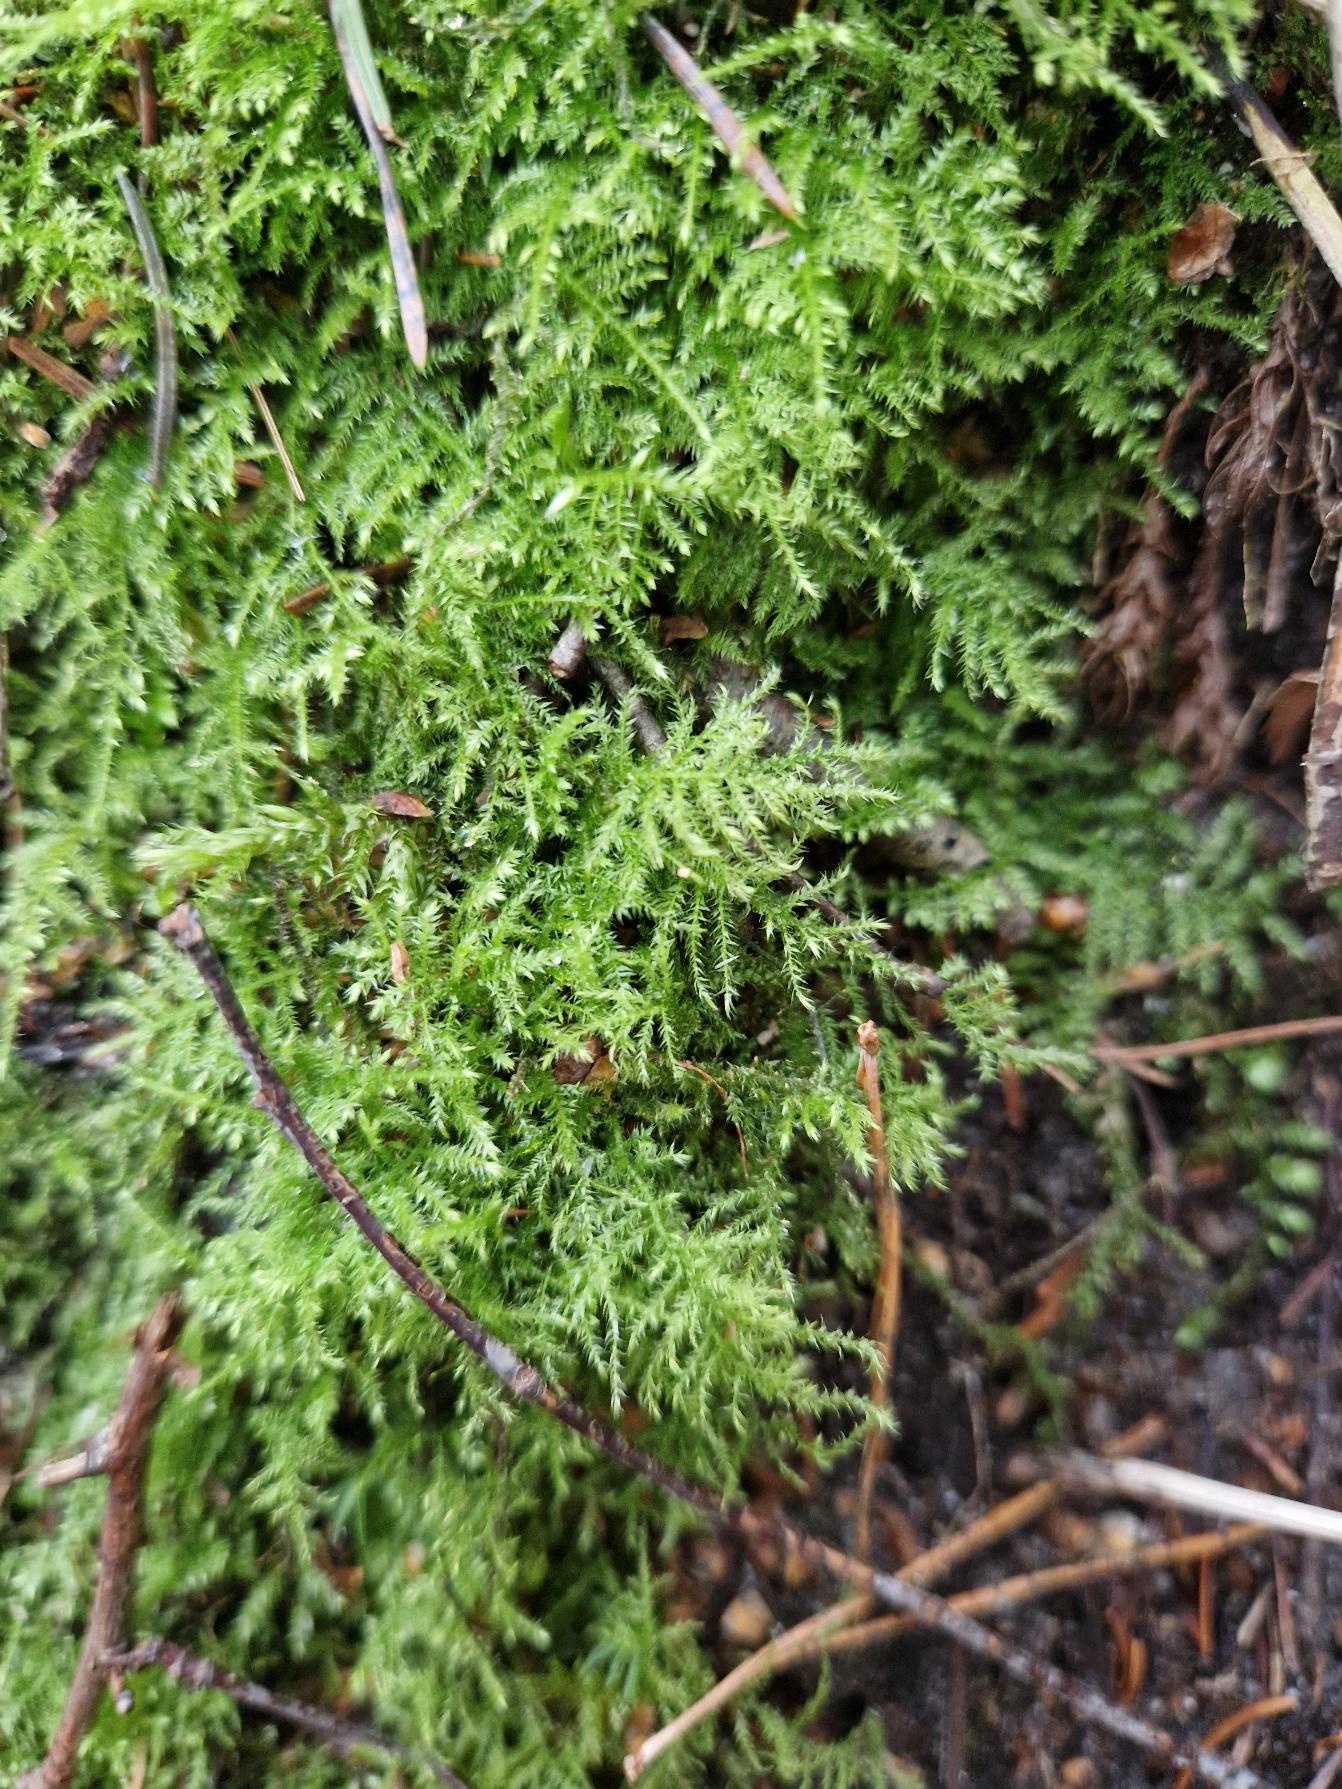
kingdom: Plantae
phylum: Bryophyta
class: Bryopsida
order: Hypnales
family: Brachytheciaceae
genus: Kindbergia
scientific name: Kindbergia praelonga
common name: Forskelligbladet vortetand
